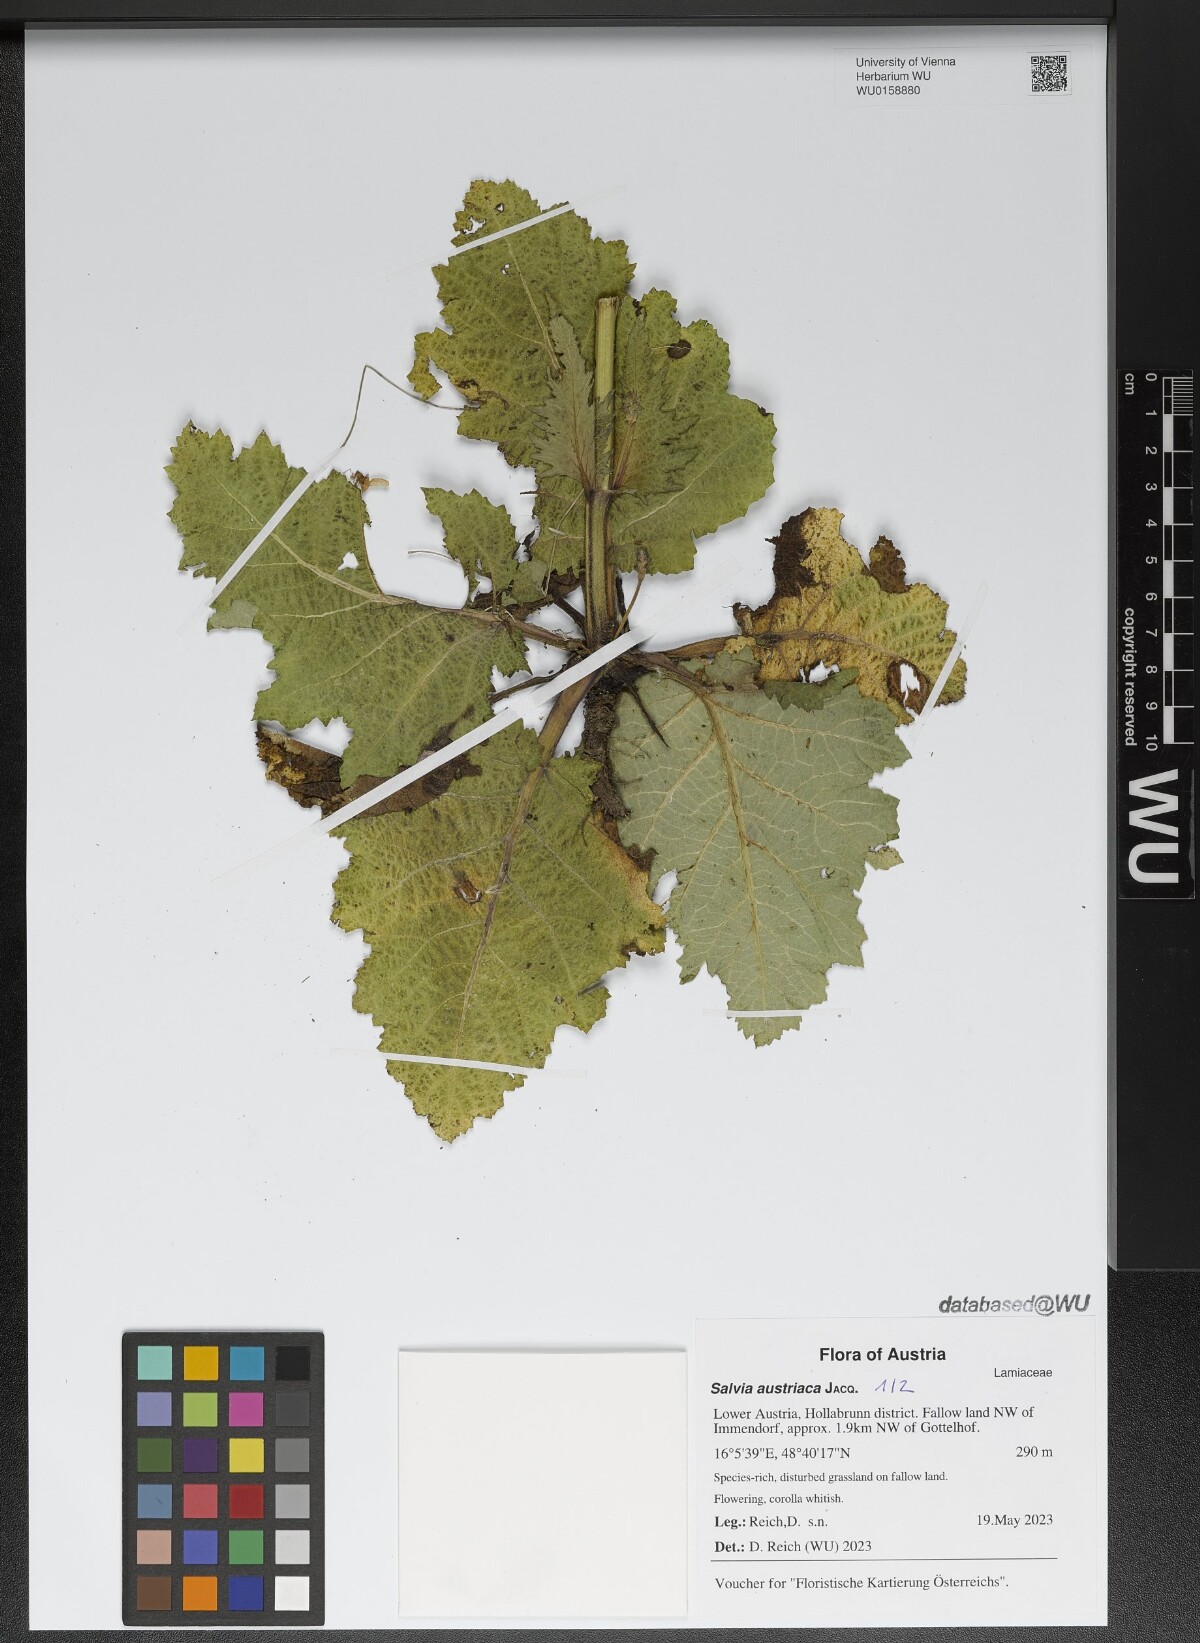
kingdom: Plantae
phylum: Tracheophyta
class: Magnoliopsida
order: Lamiales
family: Lamiaceae
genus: Salvia
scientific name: Salvia austriaca
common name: Austrian sage
